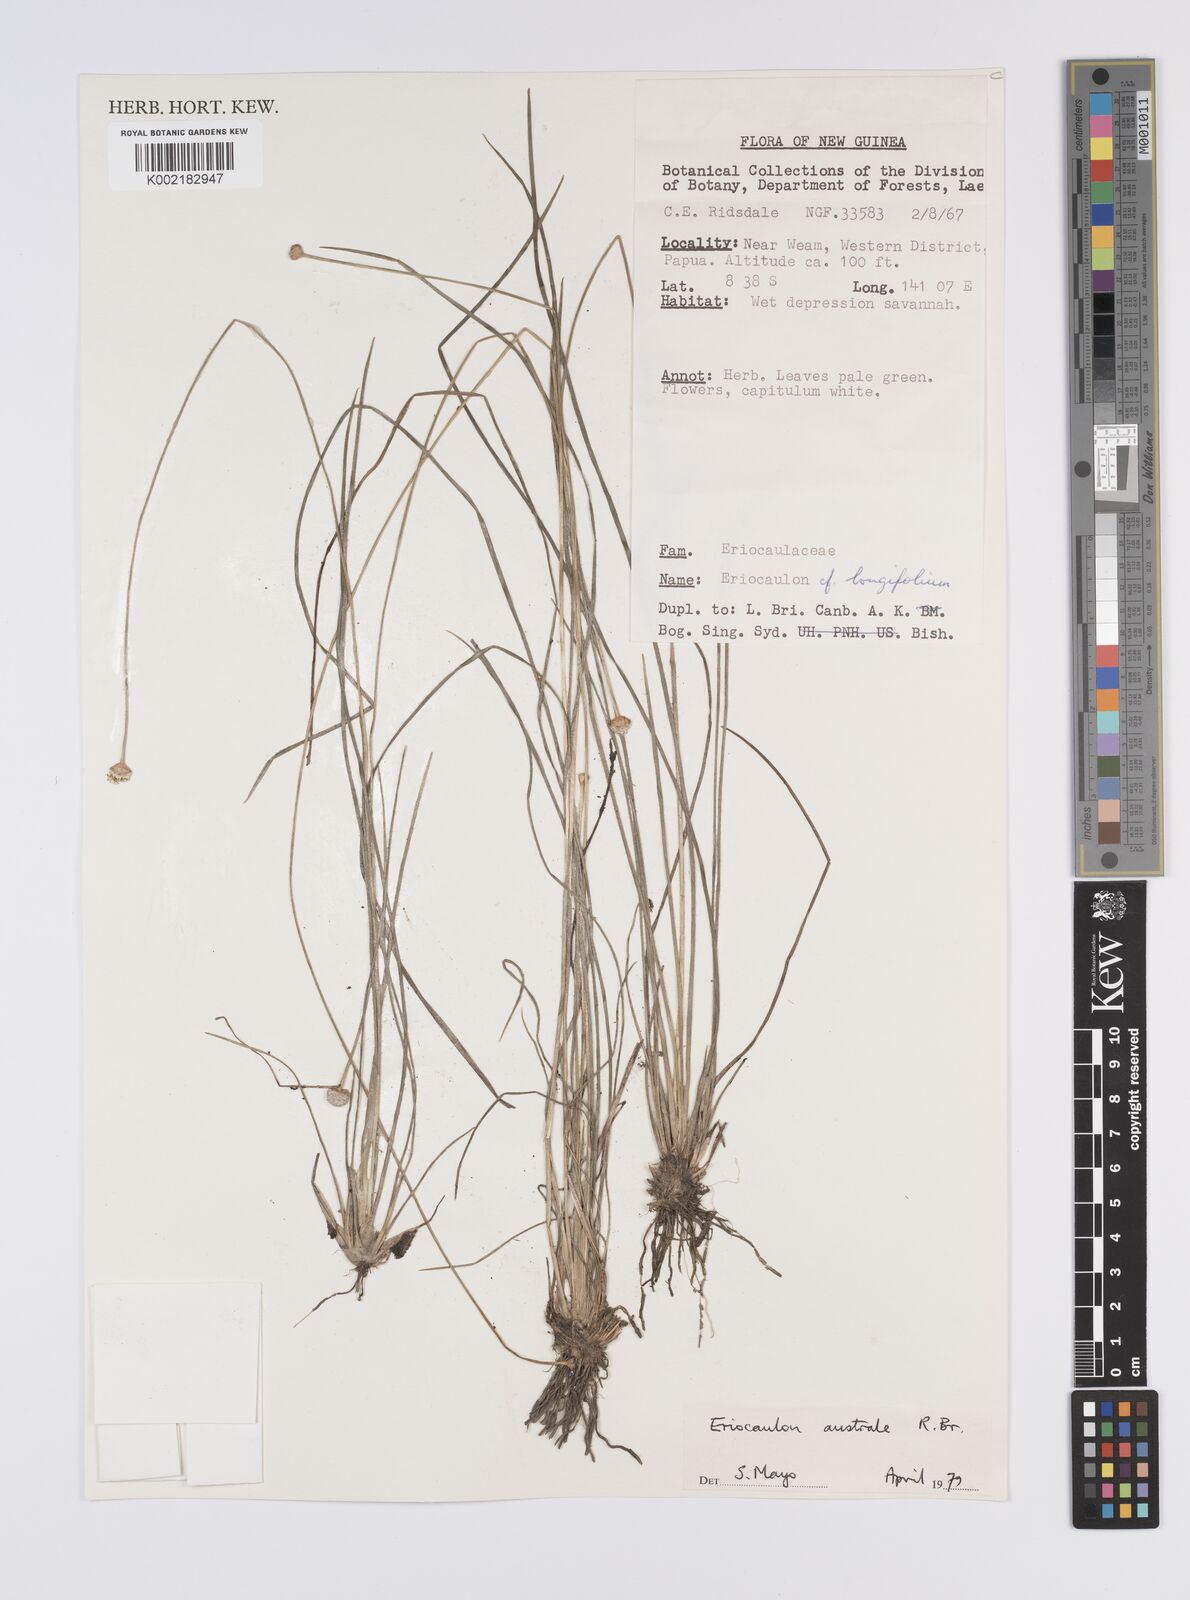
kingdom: Plantae
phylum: Tracheophyta
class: Liliopsida
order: Poales
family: Eriocaulaceae
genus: Eriocaulon
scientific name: Eriocaulon australe
